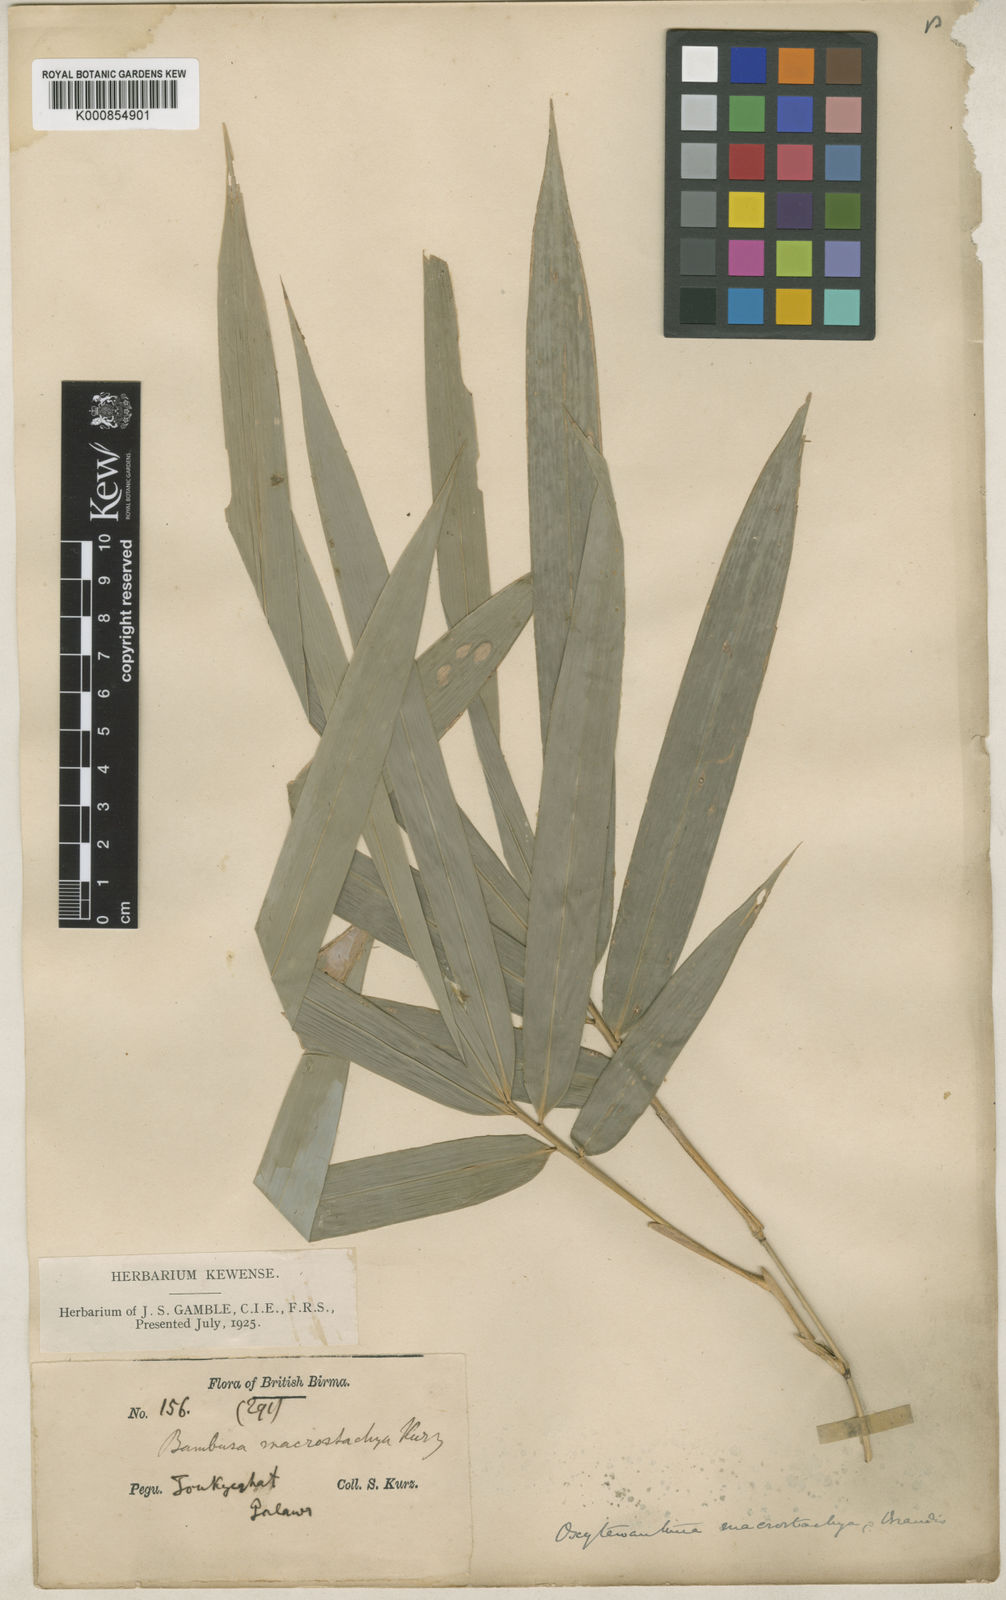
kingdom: Plantae
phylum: Tracheophyta
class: Liliopsida
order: Poales
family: Poaceae
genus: Gigantochloa
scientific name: Gigantochloa macrostachya
